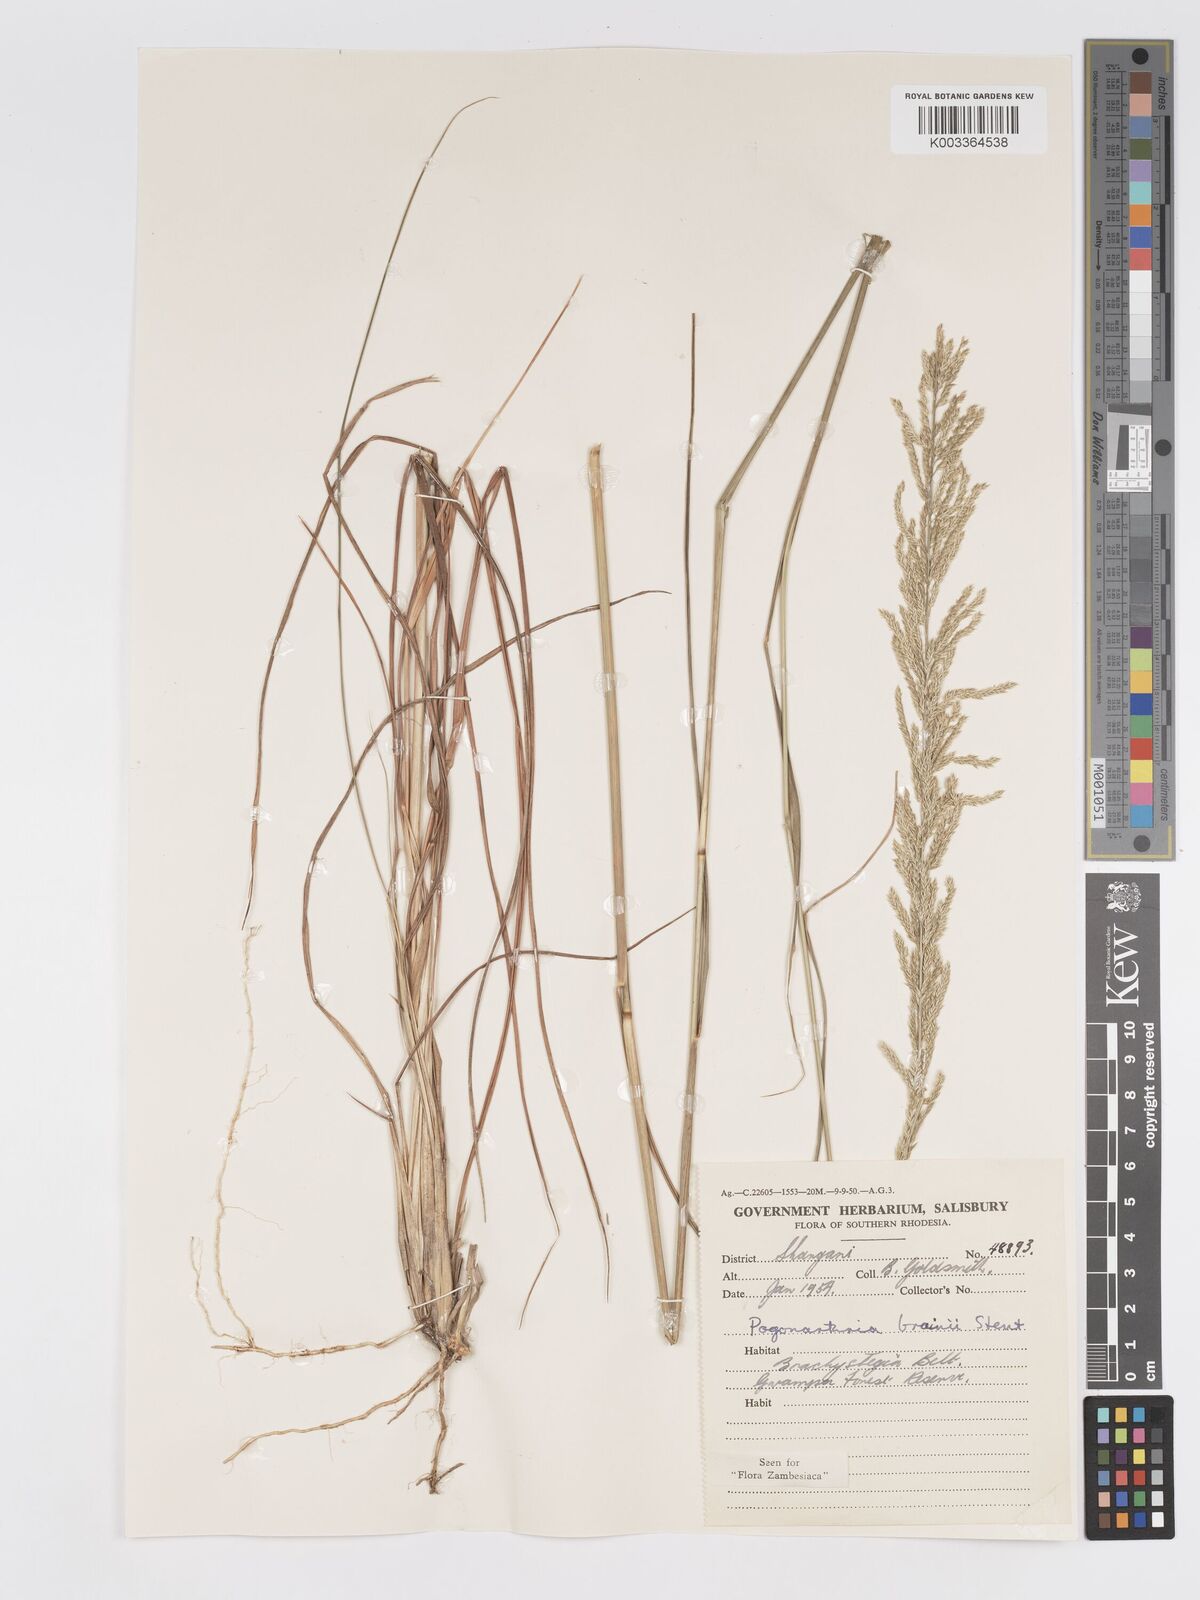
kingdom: Plantae
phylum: Tracheophyta
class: Liliopsida
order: Poales
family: Poaceae
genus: Eragrostis
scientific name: Eragrostis brainii
